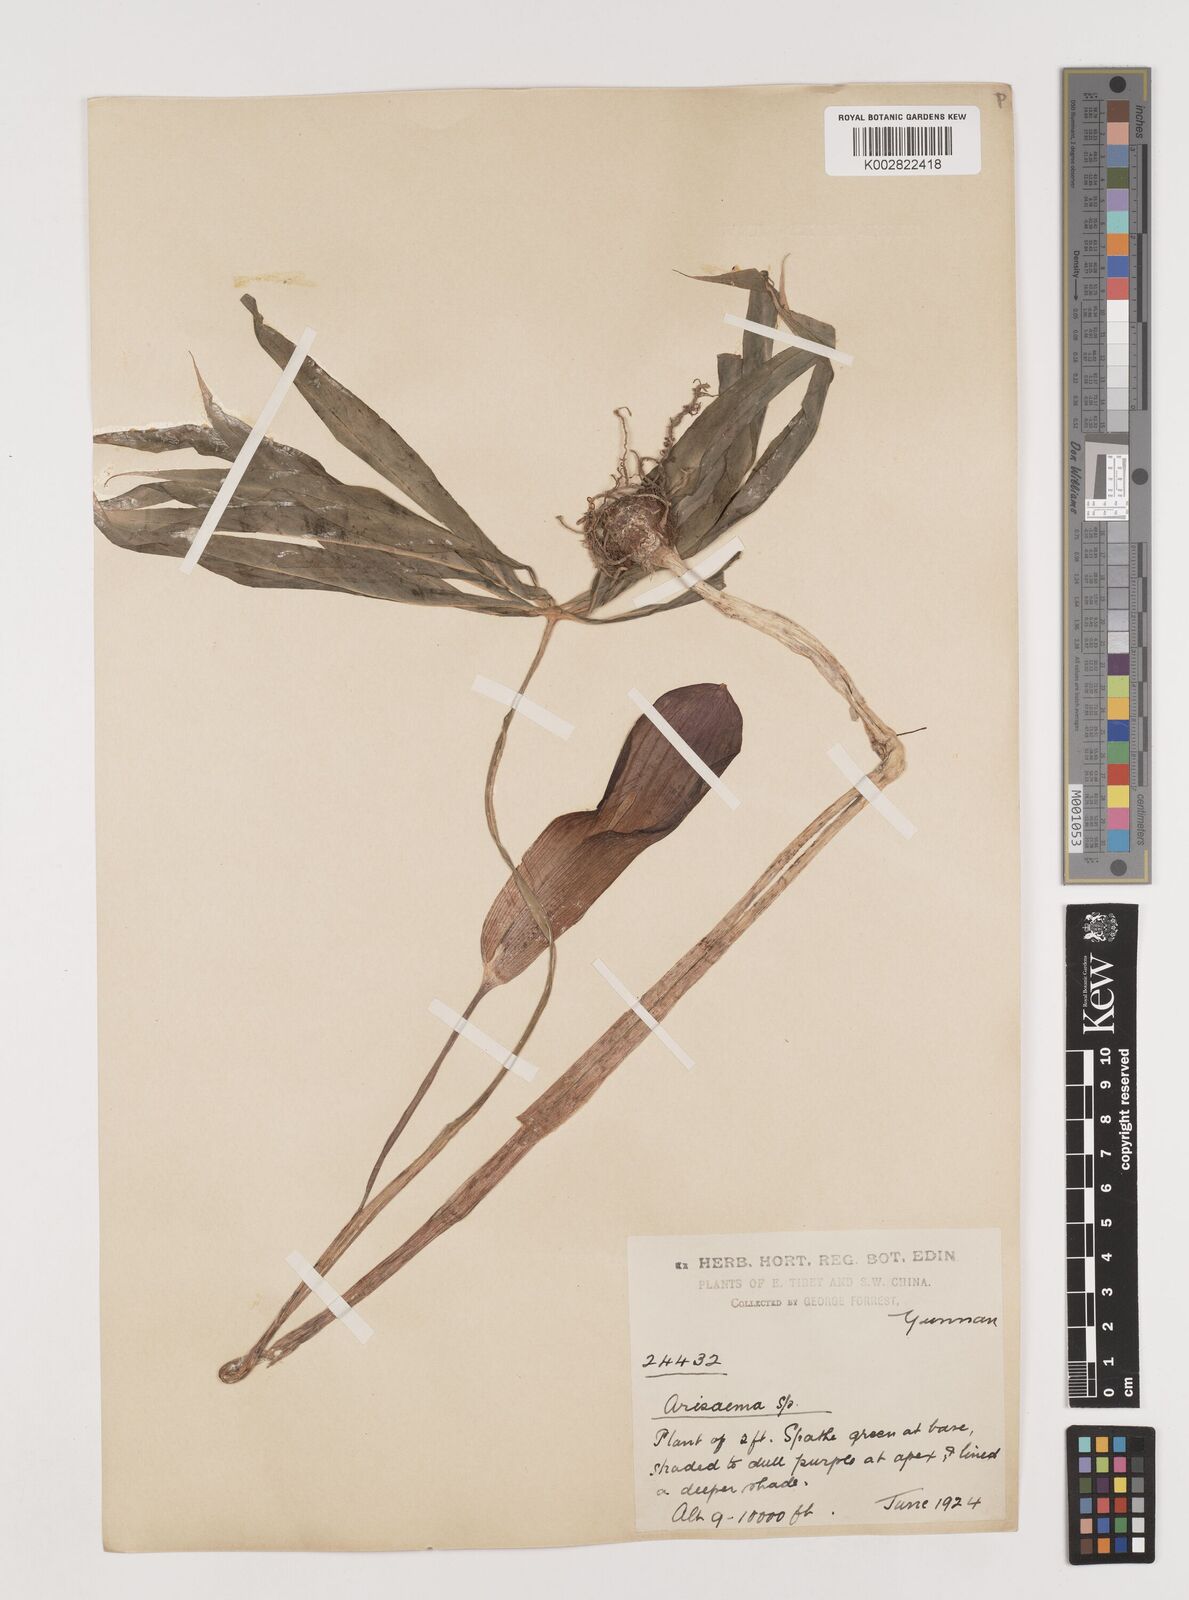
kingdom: Plantae
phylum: Tracheophyta
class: Liliopsida
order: Alismatales
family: Araceae
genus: Arisaema
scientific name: Arisaema erubescens
